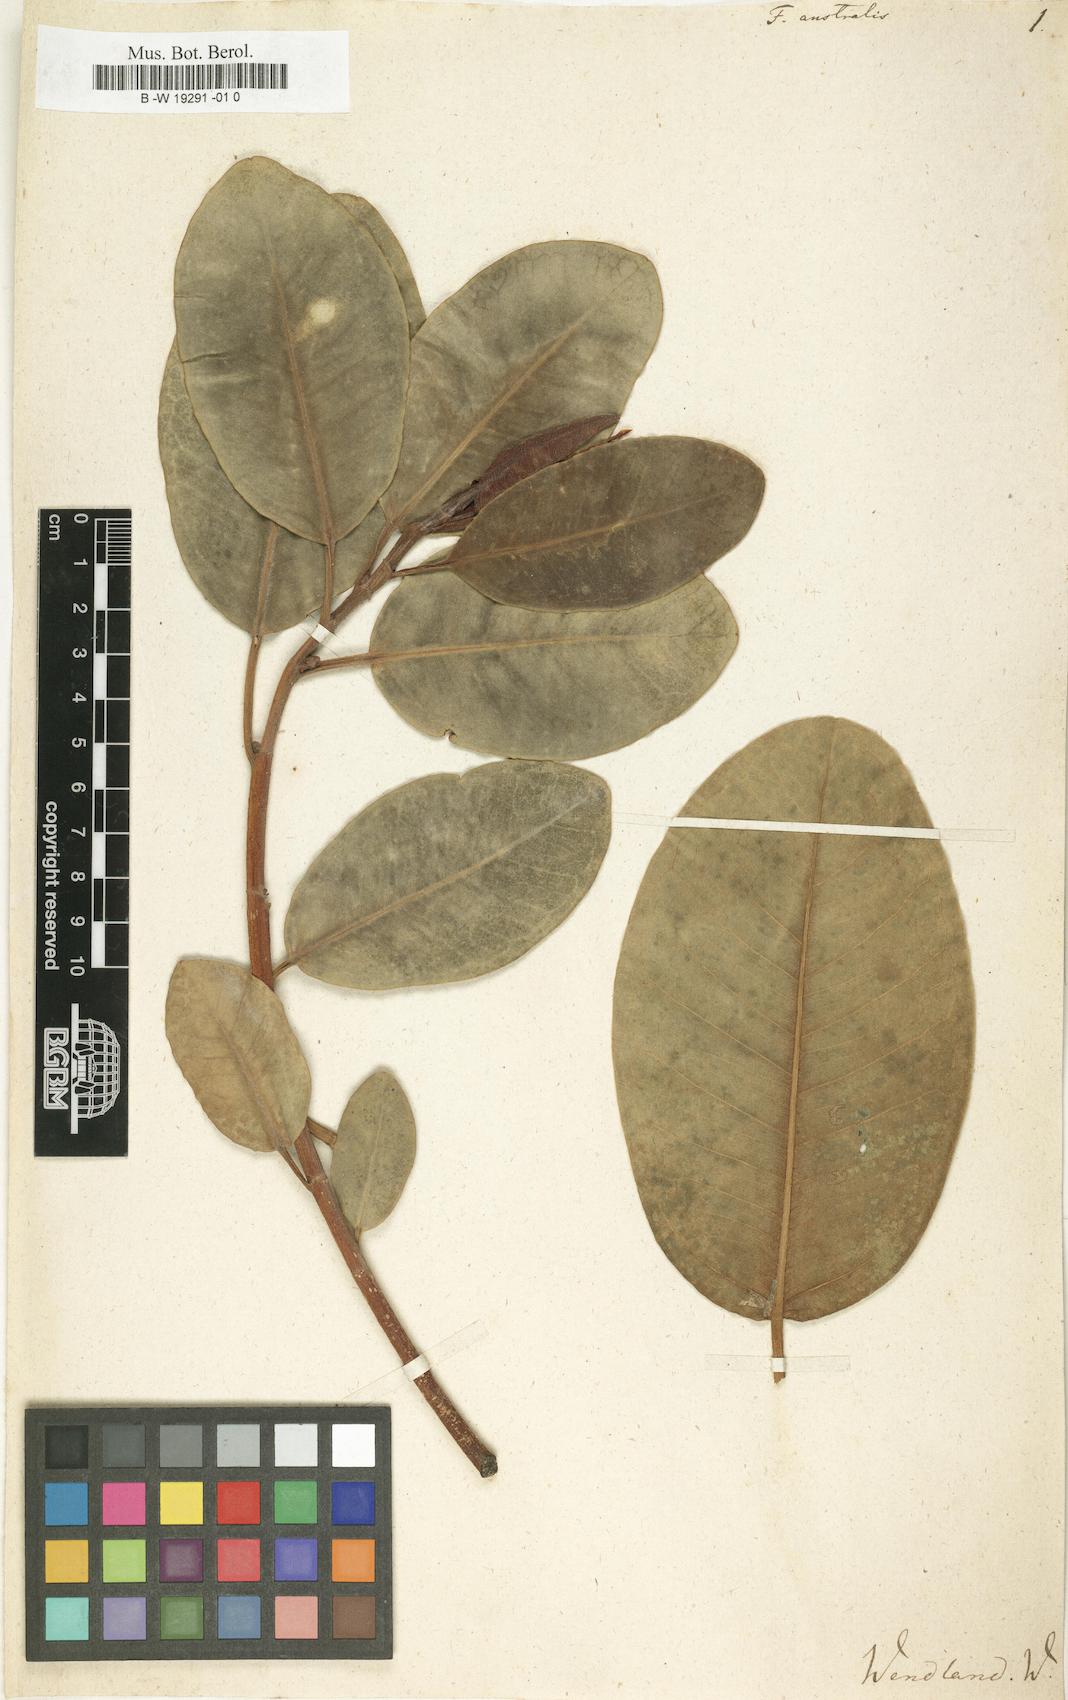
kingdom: Plantae
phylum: Tracheophyta
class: Magnoliopsida
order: Rosales
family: Moraceae
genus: Ficus
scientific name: Ficus rubiginosa
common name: Port jackson fig
